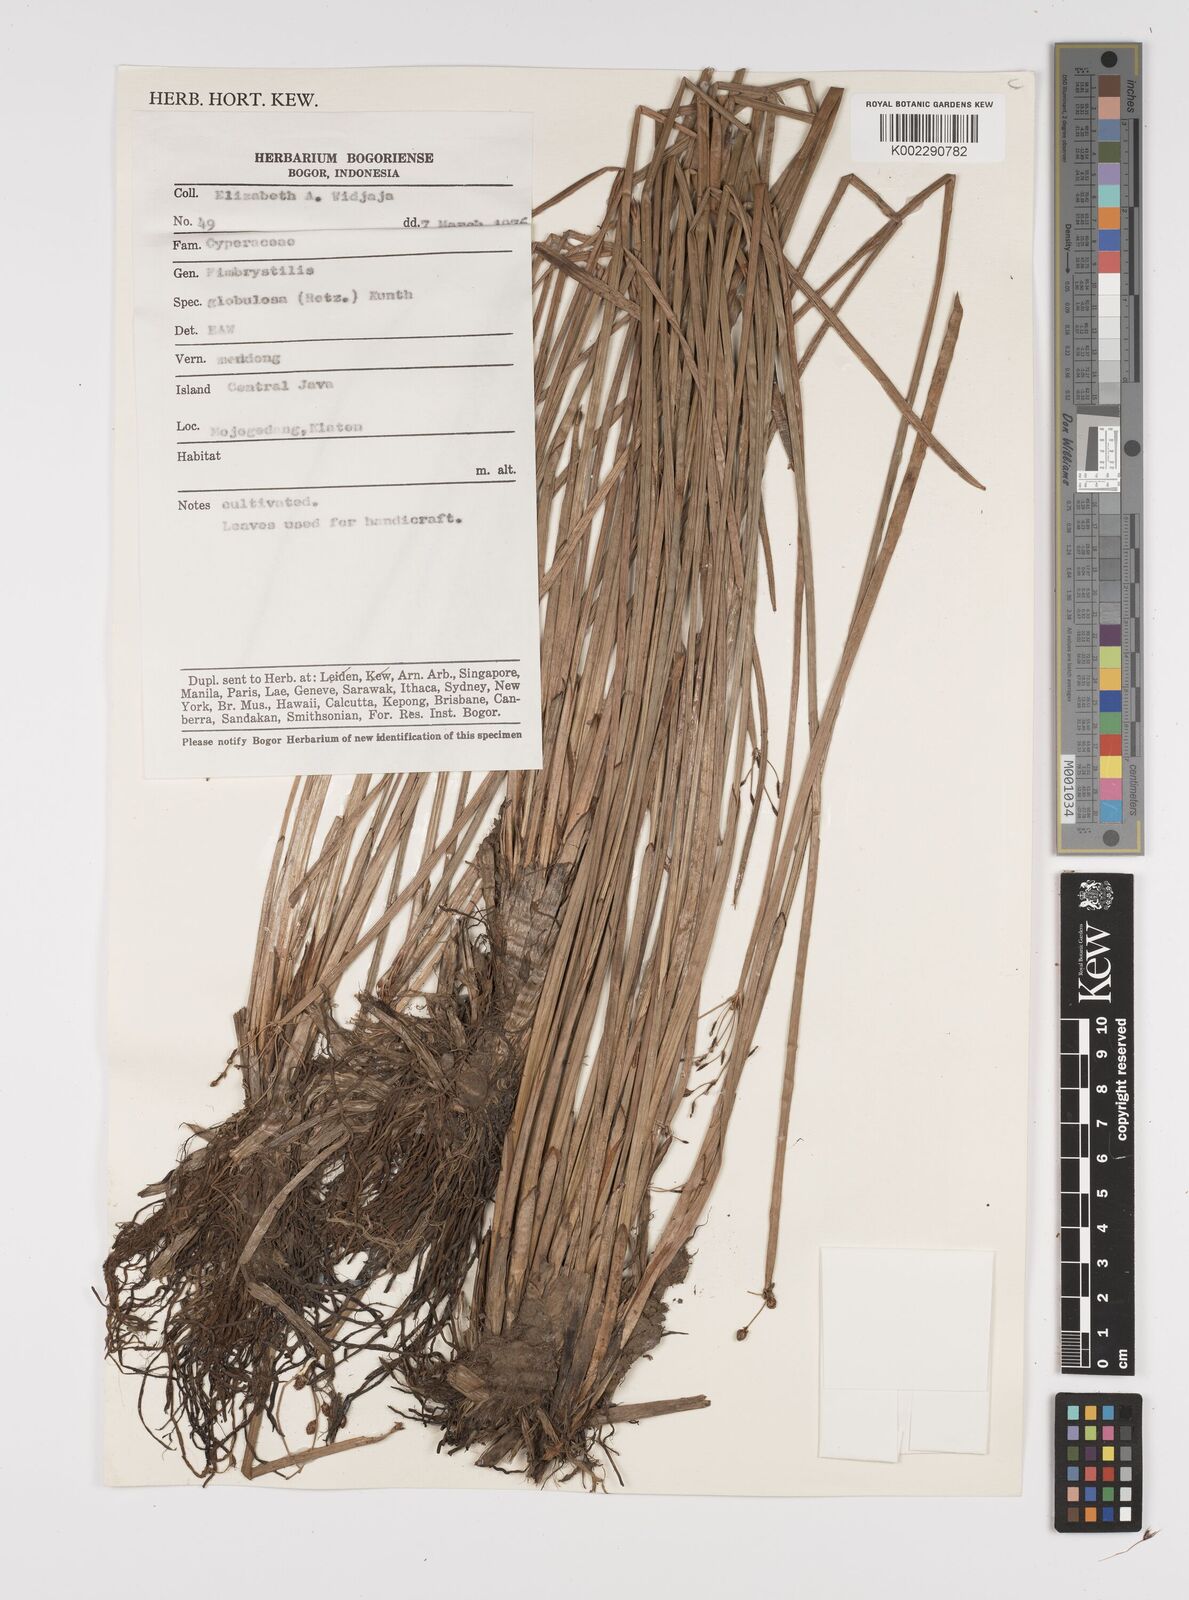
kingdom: Plantae
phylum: Tracheophyta
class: Liliopsida
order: Poales
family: Cyperaceae
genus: Fimbristylis
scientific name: Fimbristylis umbellaris
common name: Globular fimbristylis
